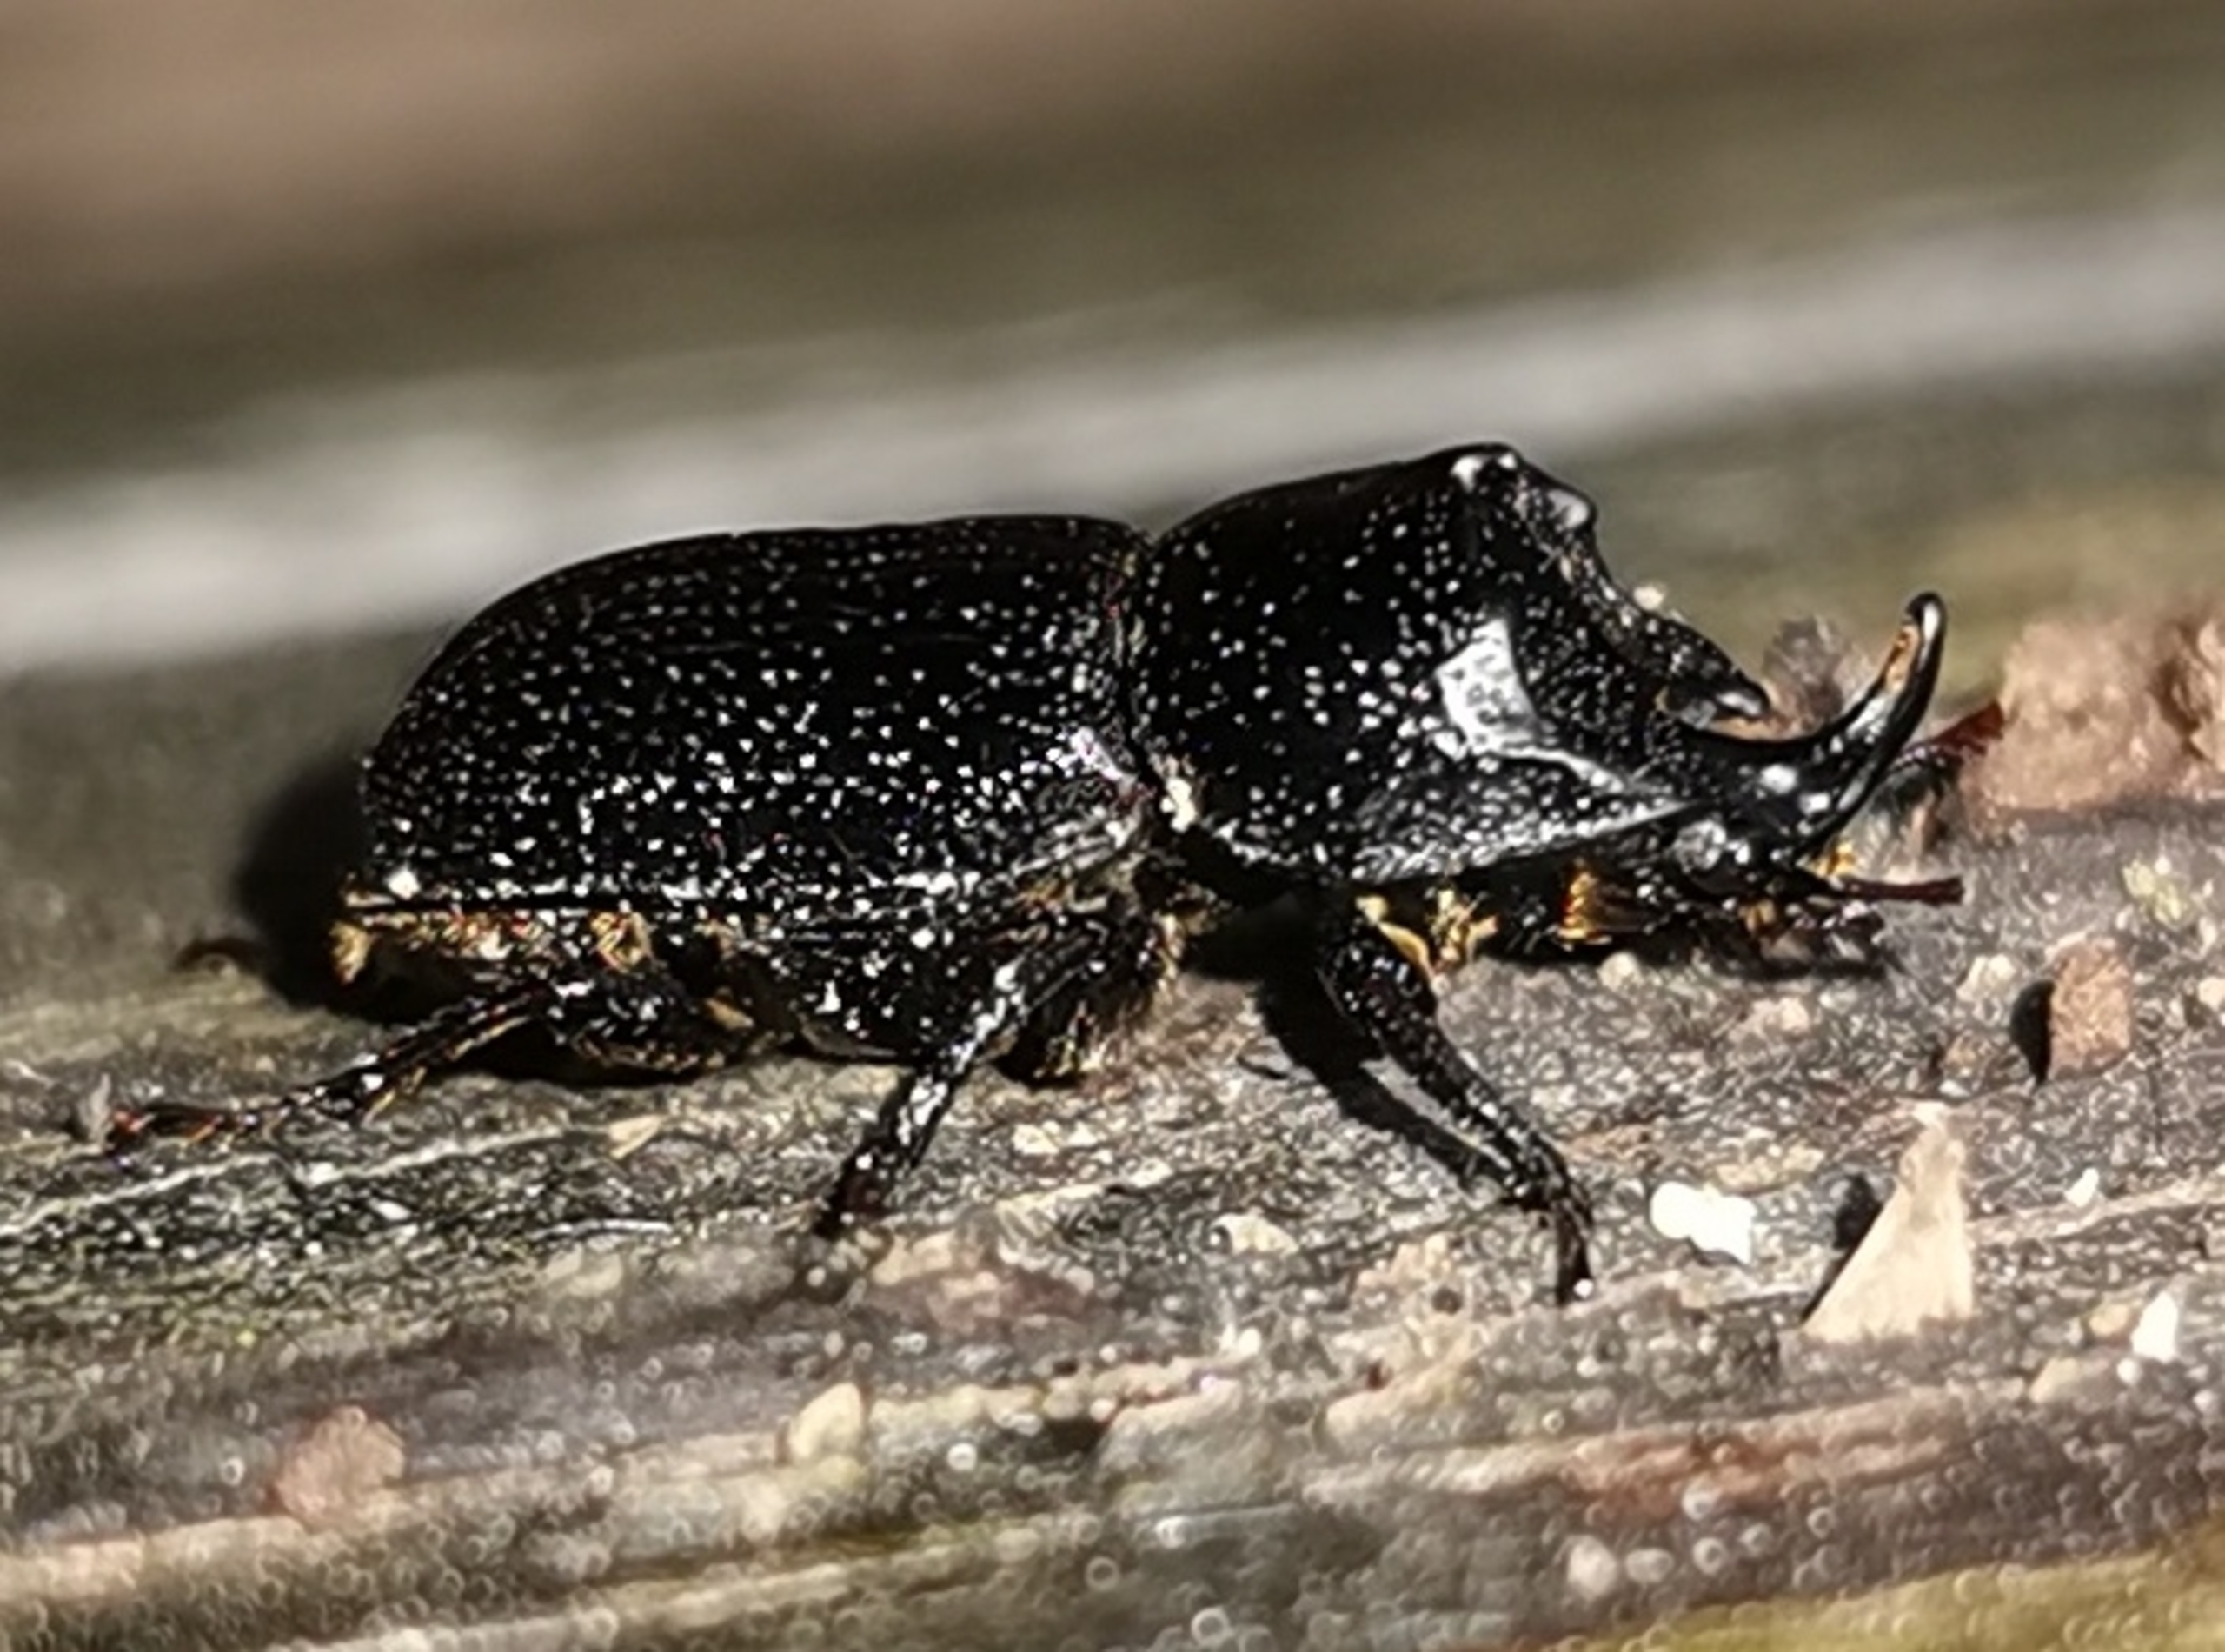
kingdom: Animalia
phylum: Arthropoda
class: Insecta
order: Coleoptera
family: Lucanidae
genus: Sinodendron
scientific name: Sinodendron cylindricum
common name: Valsehjort
